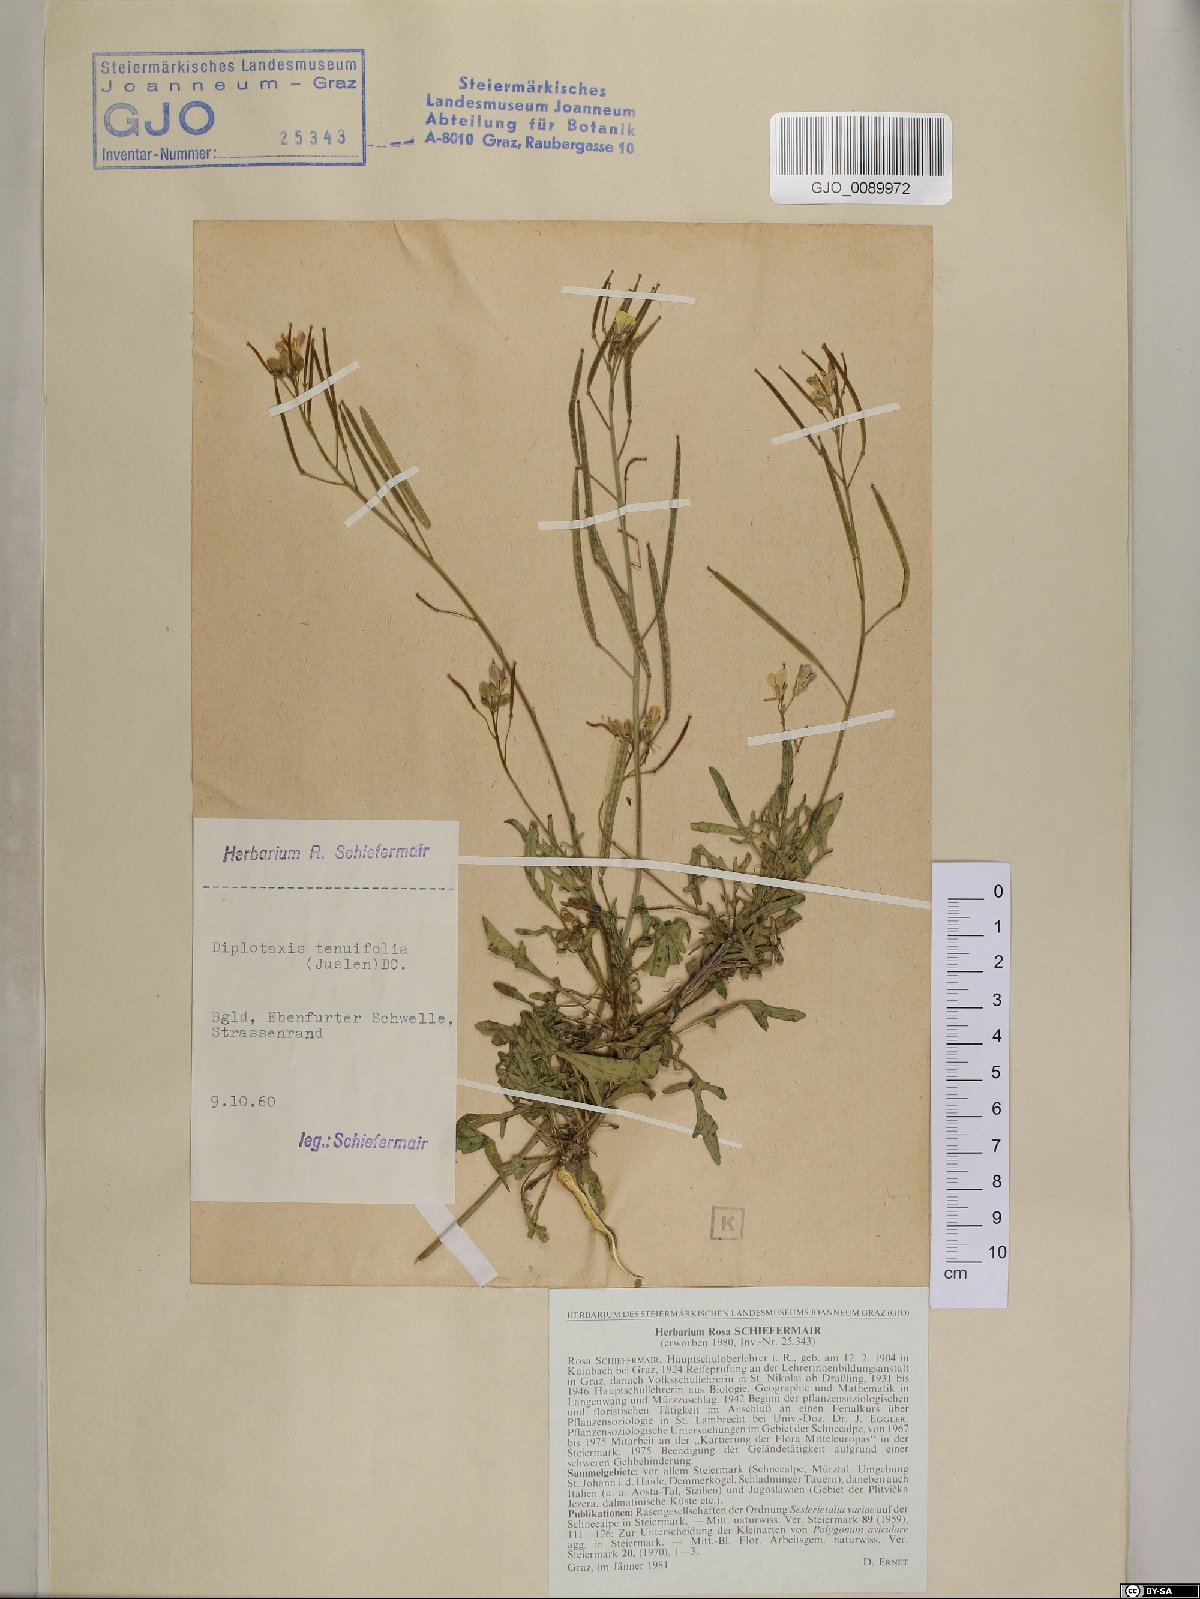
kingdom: Plantae
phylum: Tracheophyta
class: Magnoliopsida
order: Brassicales
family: Brassicaceae
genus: Diplotaxis
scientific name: Diplotaxis tenuifolia
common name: Perennial wall-rocket
